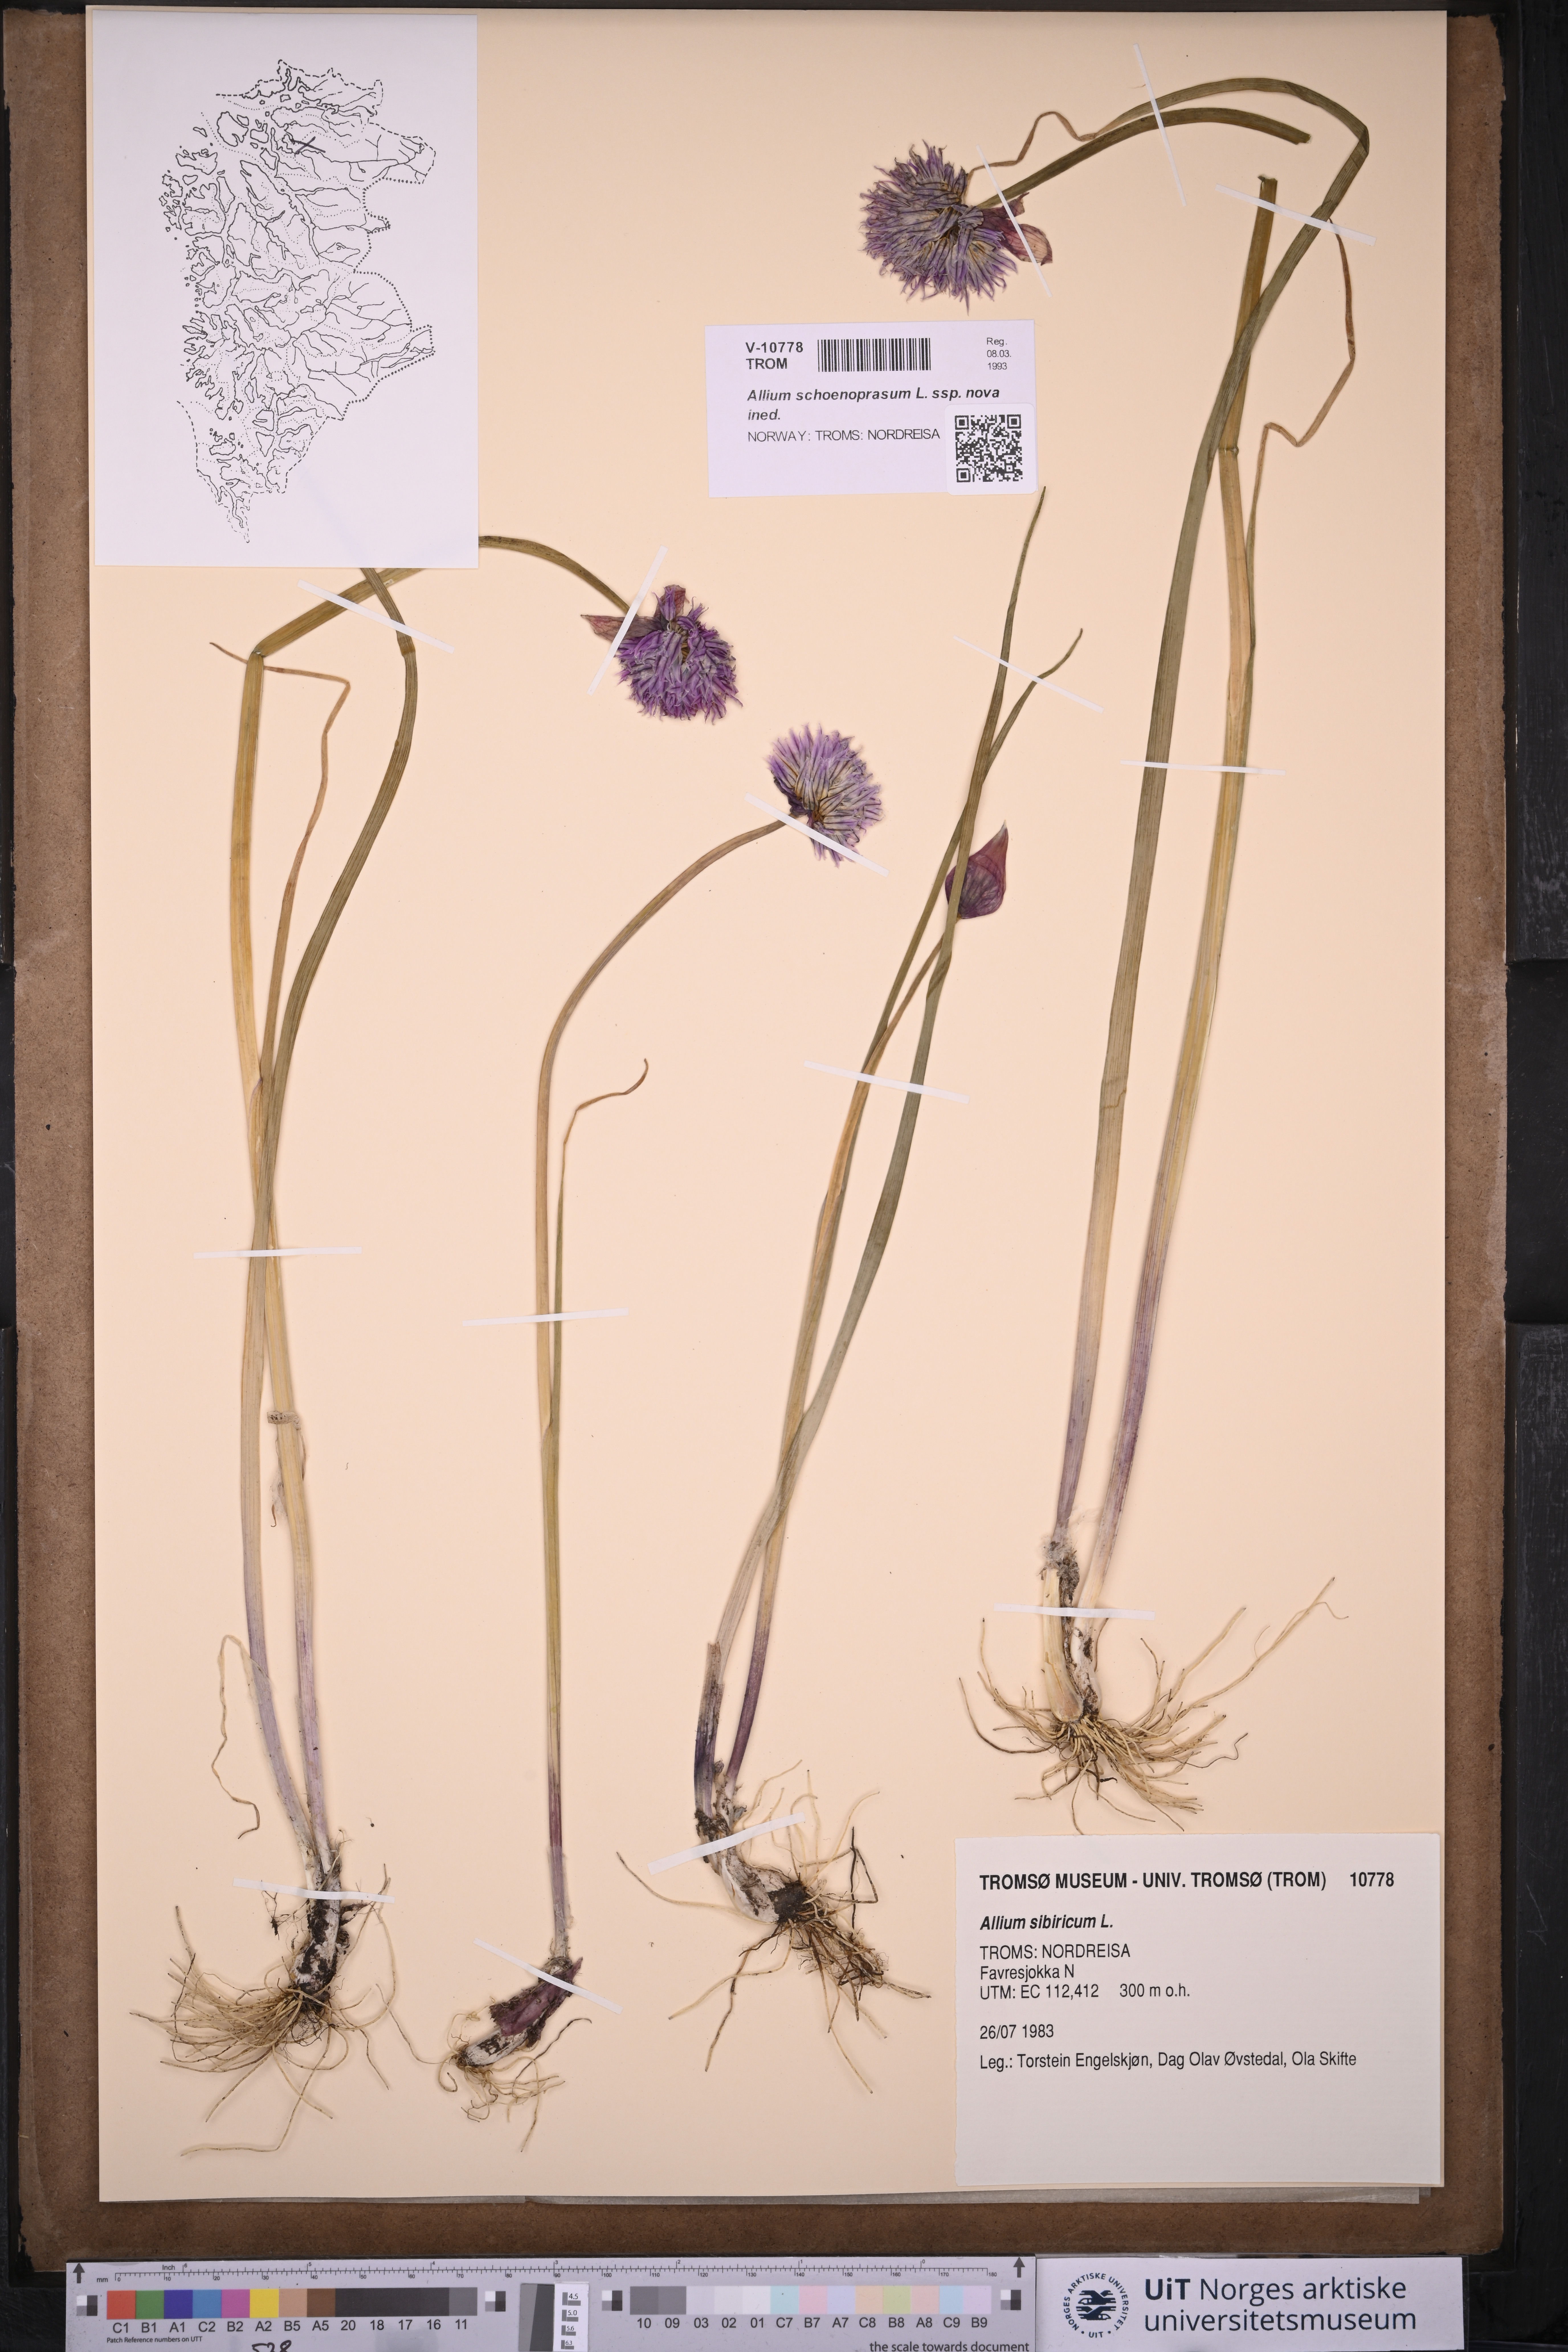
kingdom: Plantae
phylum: Tracheophyta
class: Liliopsida
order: Asparagales
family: Amaryllidaceae
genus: Allium
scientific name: Allium schoenoprasum
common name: Chives
